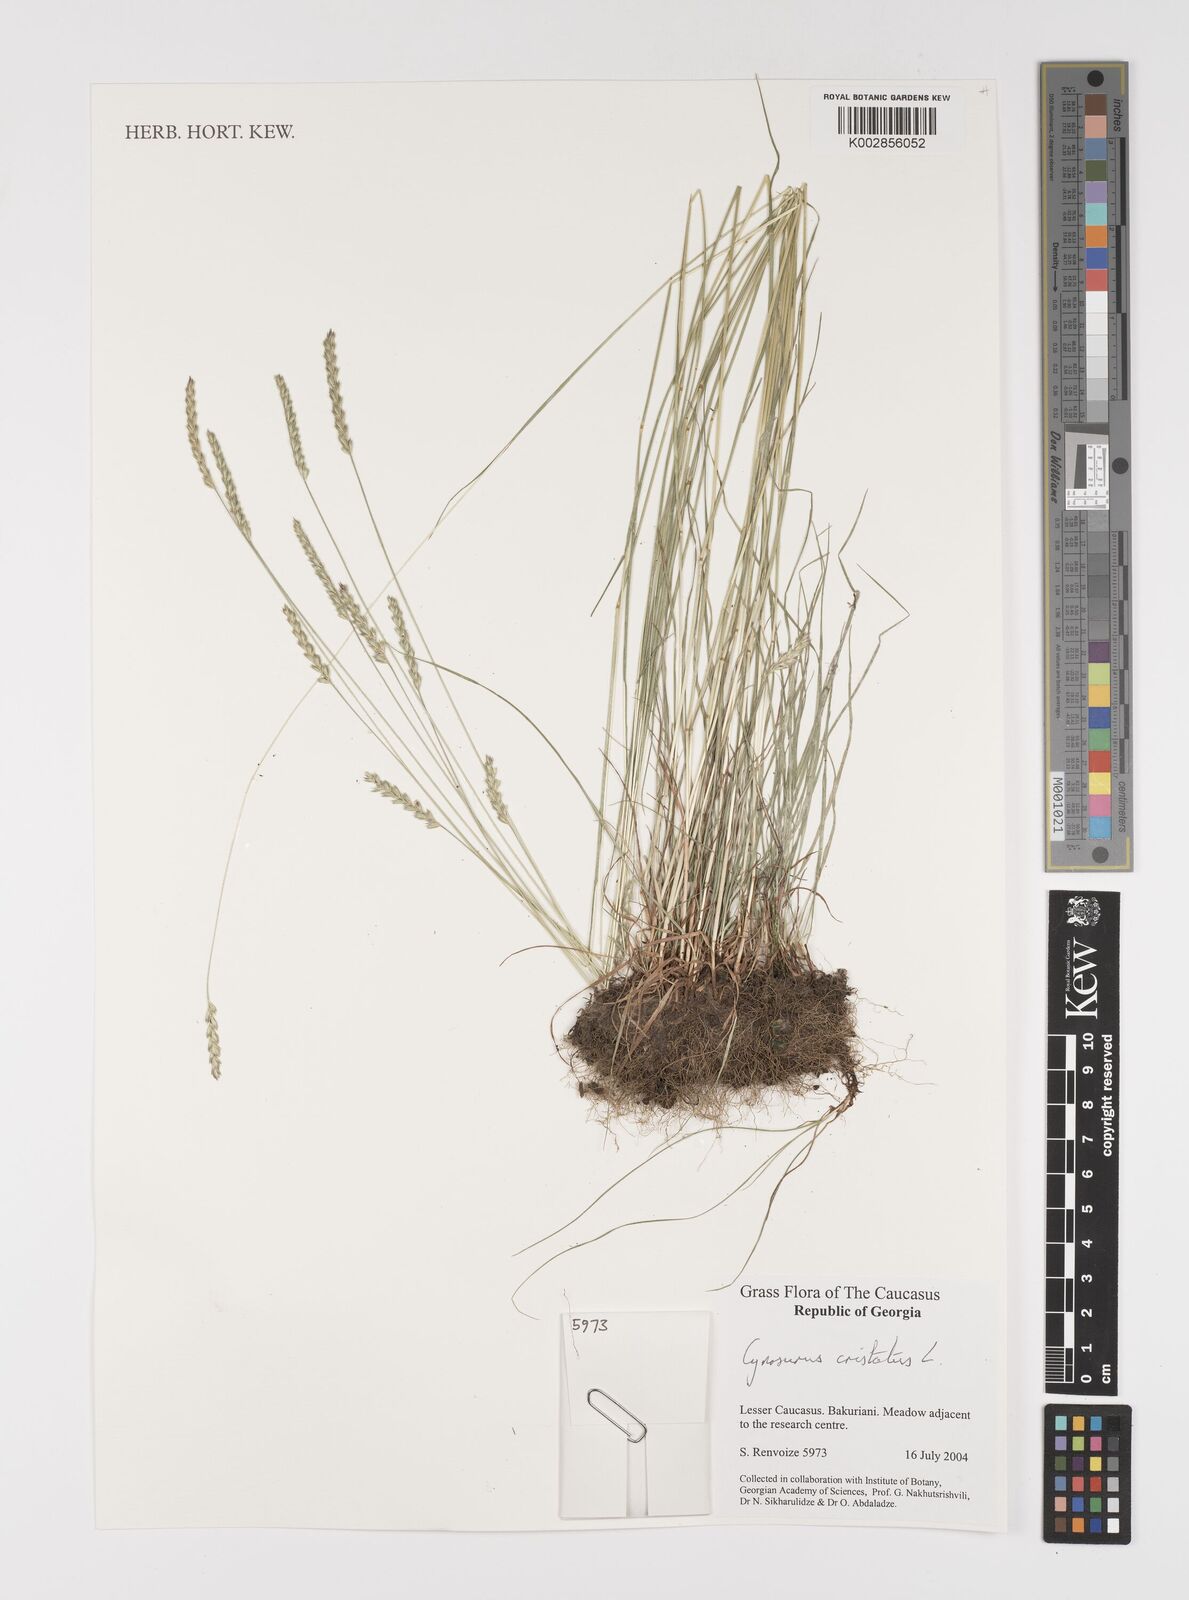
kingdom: Plantae
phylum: Tracheophyta
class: Liliopsida
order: Poales
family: Poaceae
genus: Cynosurus
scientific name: Cynosurus cristatus
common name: Crested dog's-tail
